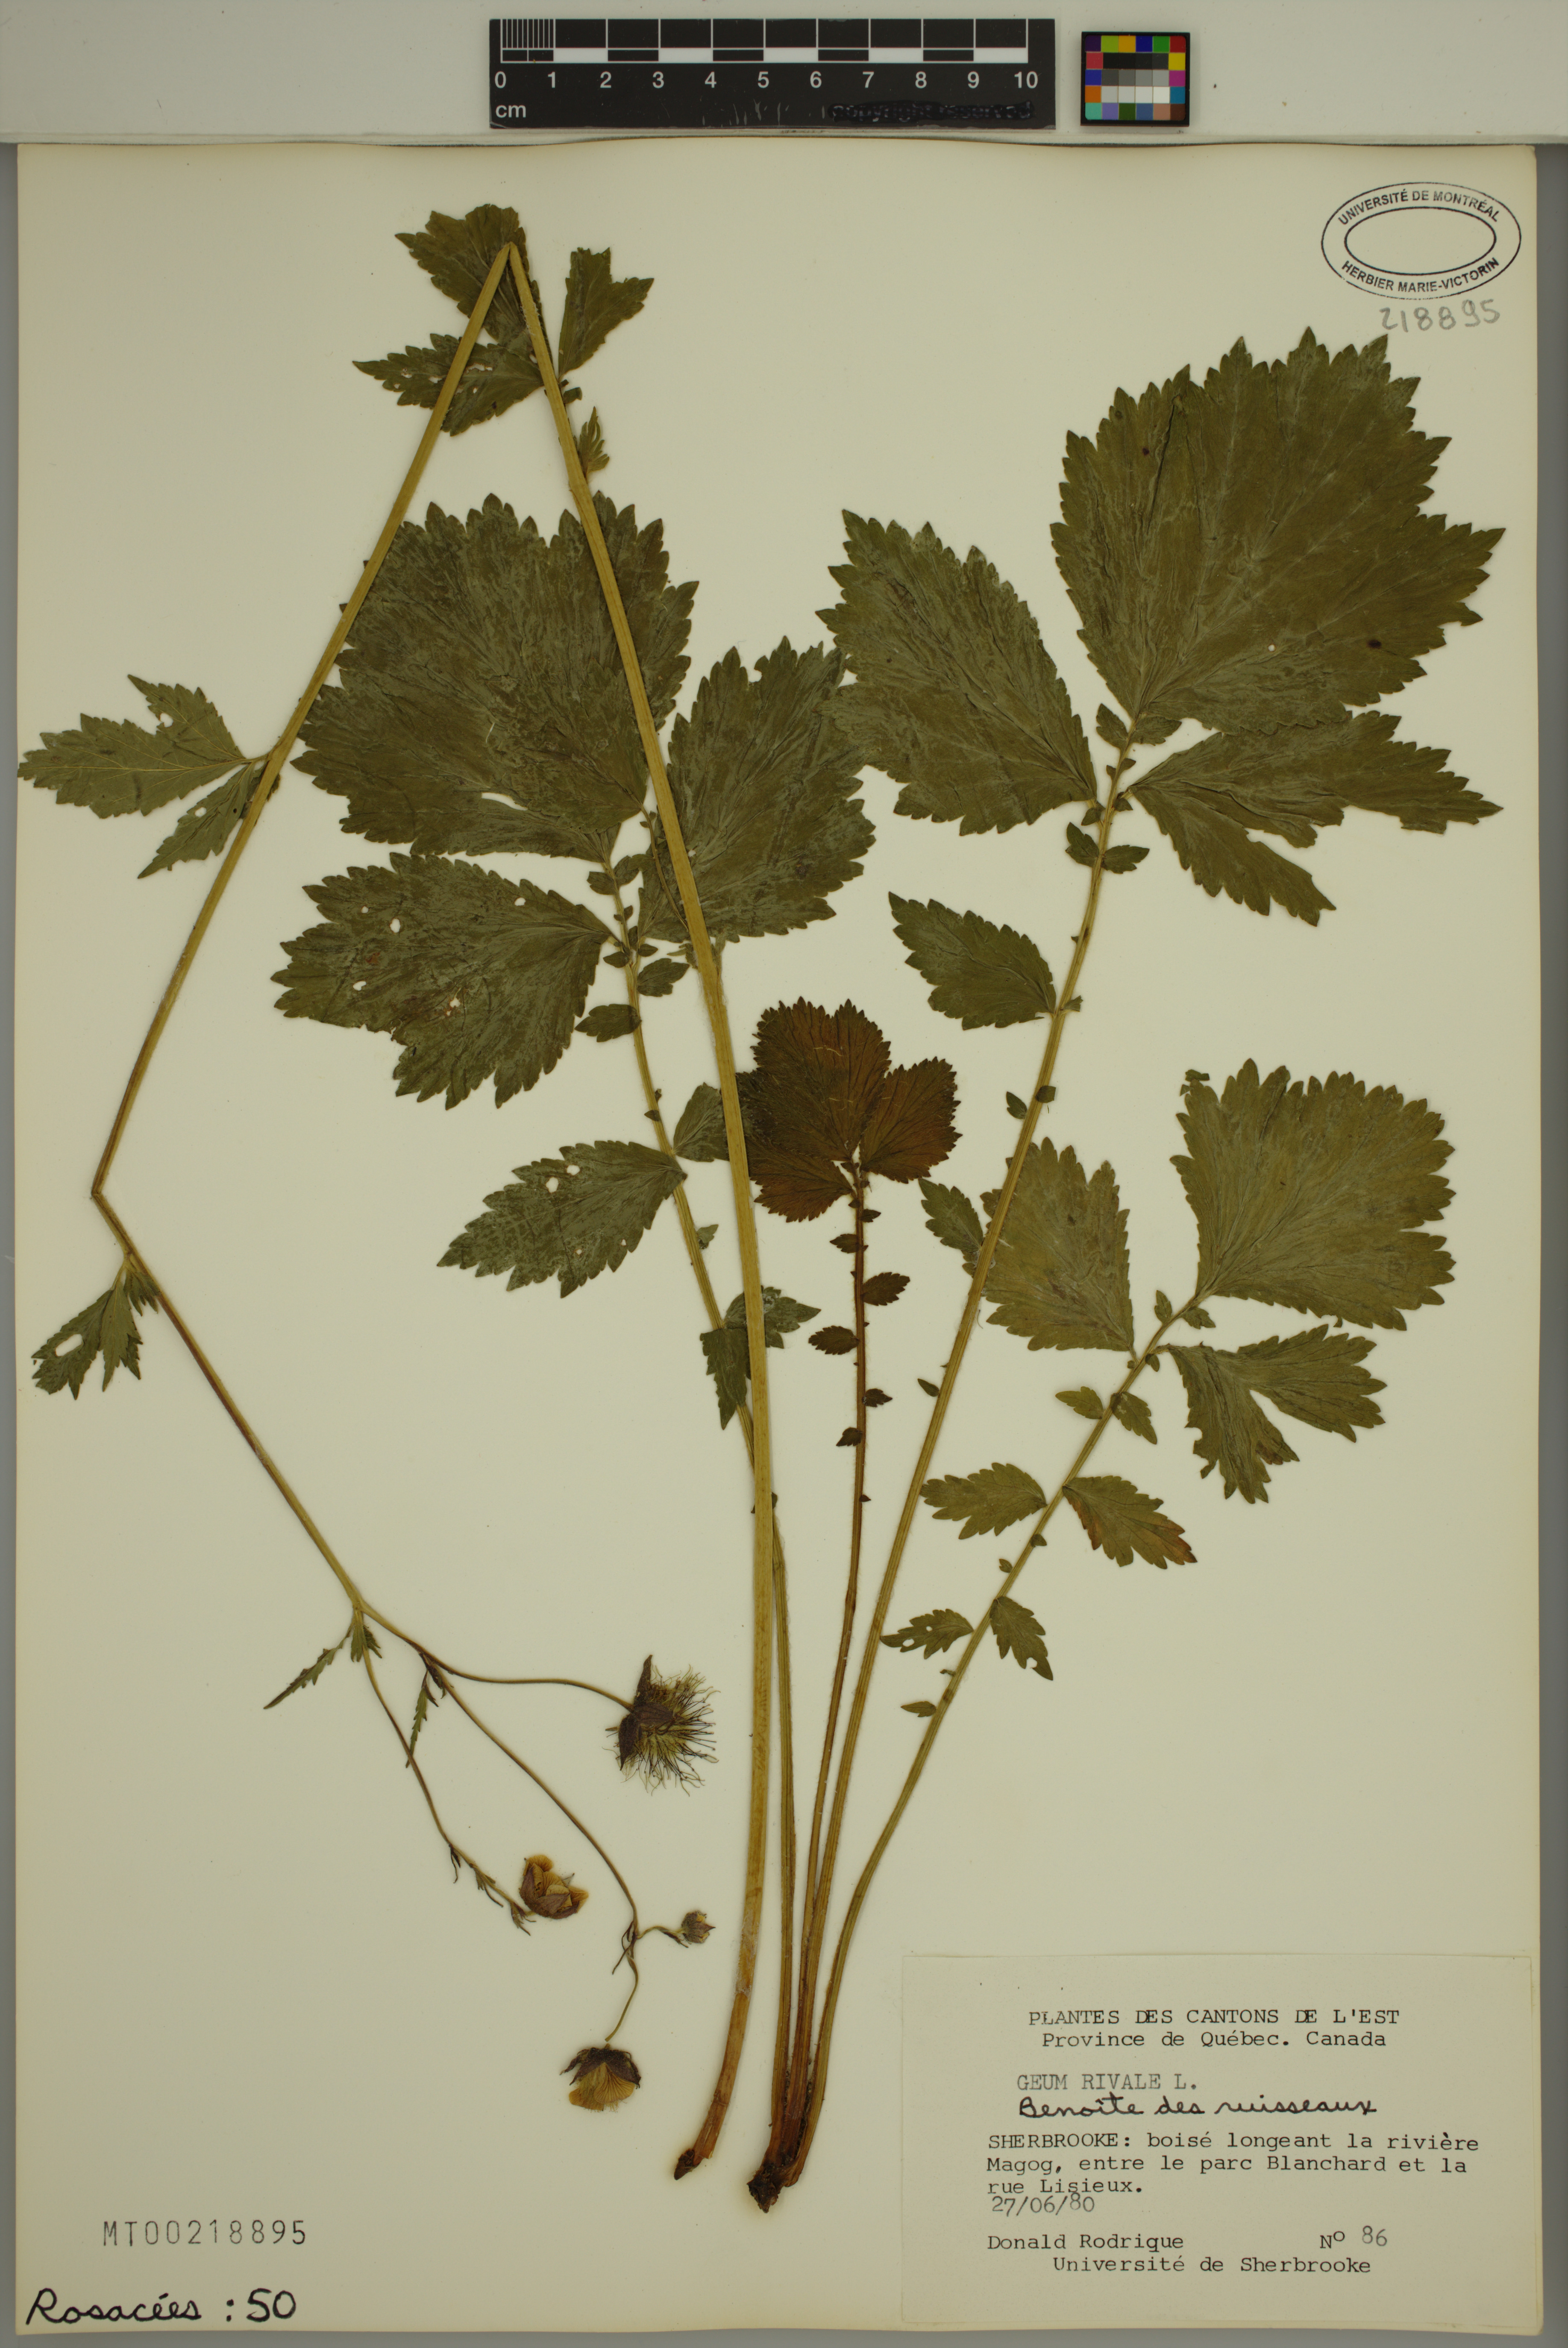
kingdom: Plantae
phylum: Tracheophyta
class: Magnoliopsida
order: Rosales
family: Rosaceae
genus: Geum
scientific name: Geum rivale
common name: Water avens
